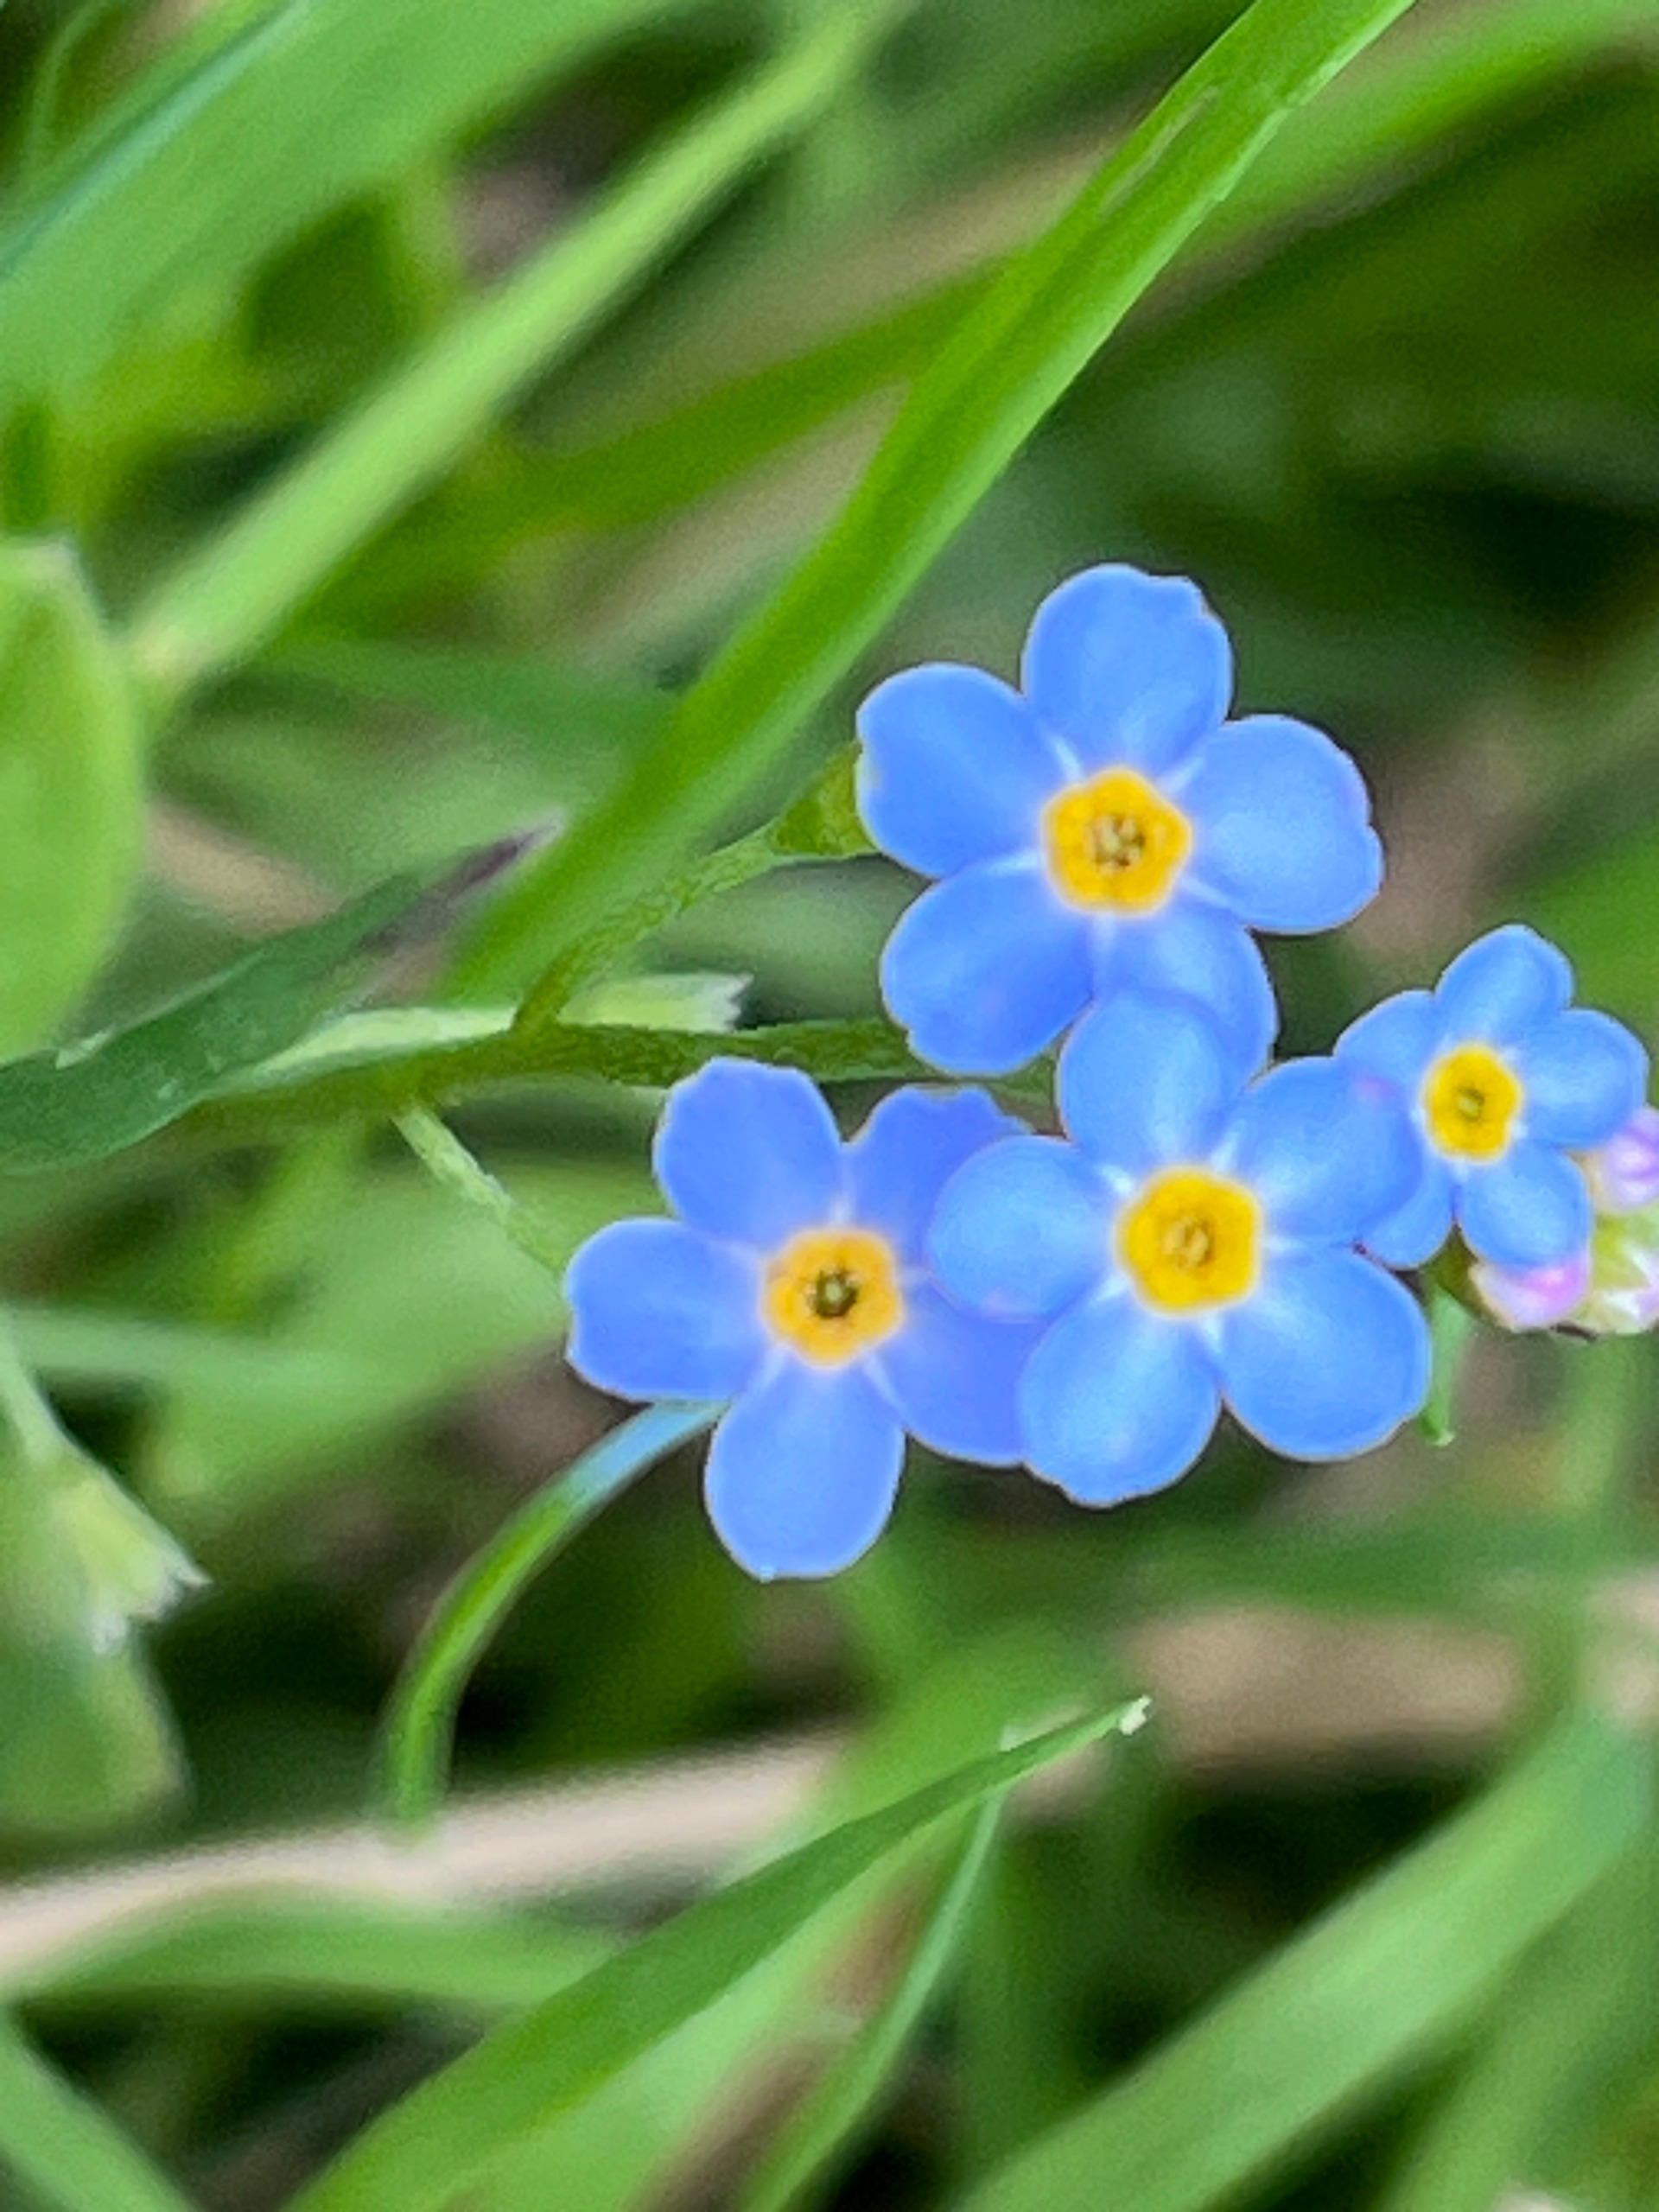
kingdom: Plantae
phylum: Tracheophyta
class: Magnoliopsida
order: Boraginales
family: Boraginaceae
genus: Myosotis
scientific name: Myosotis scorpioides
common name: Eng-forglemmigej
